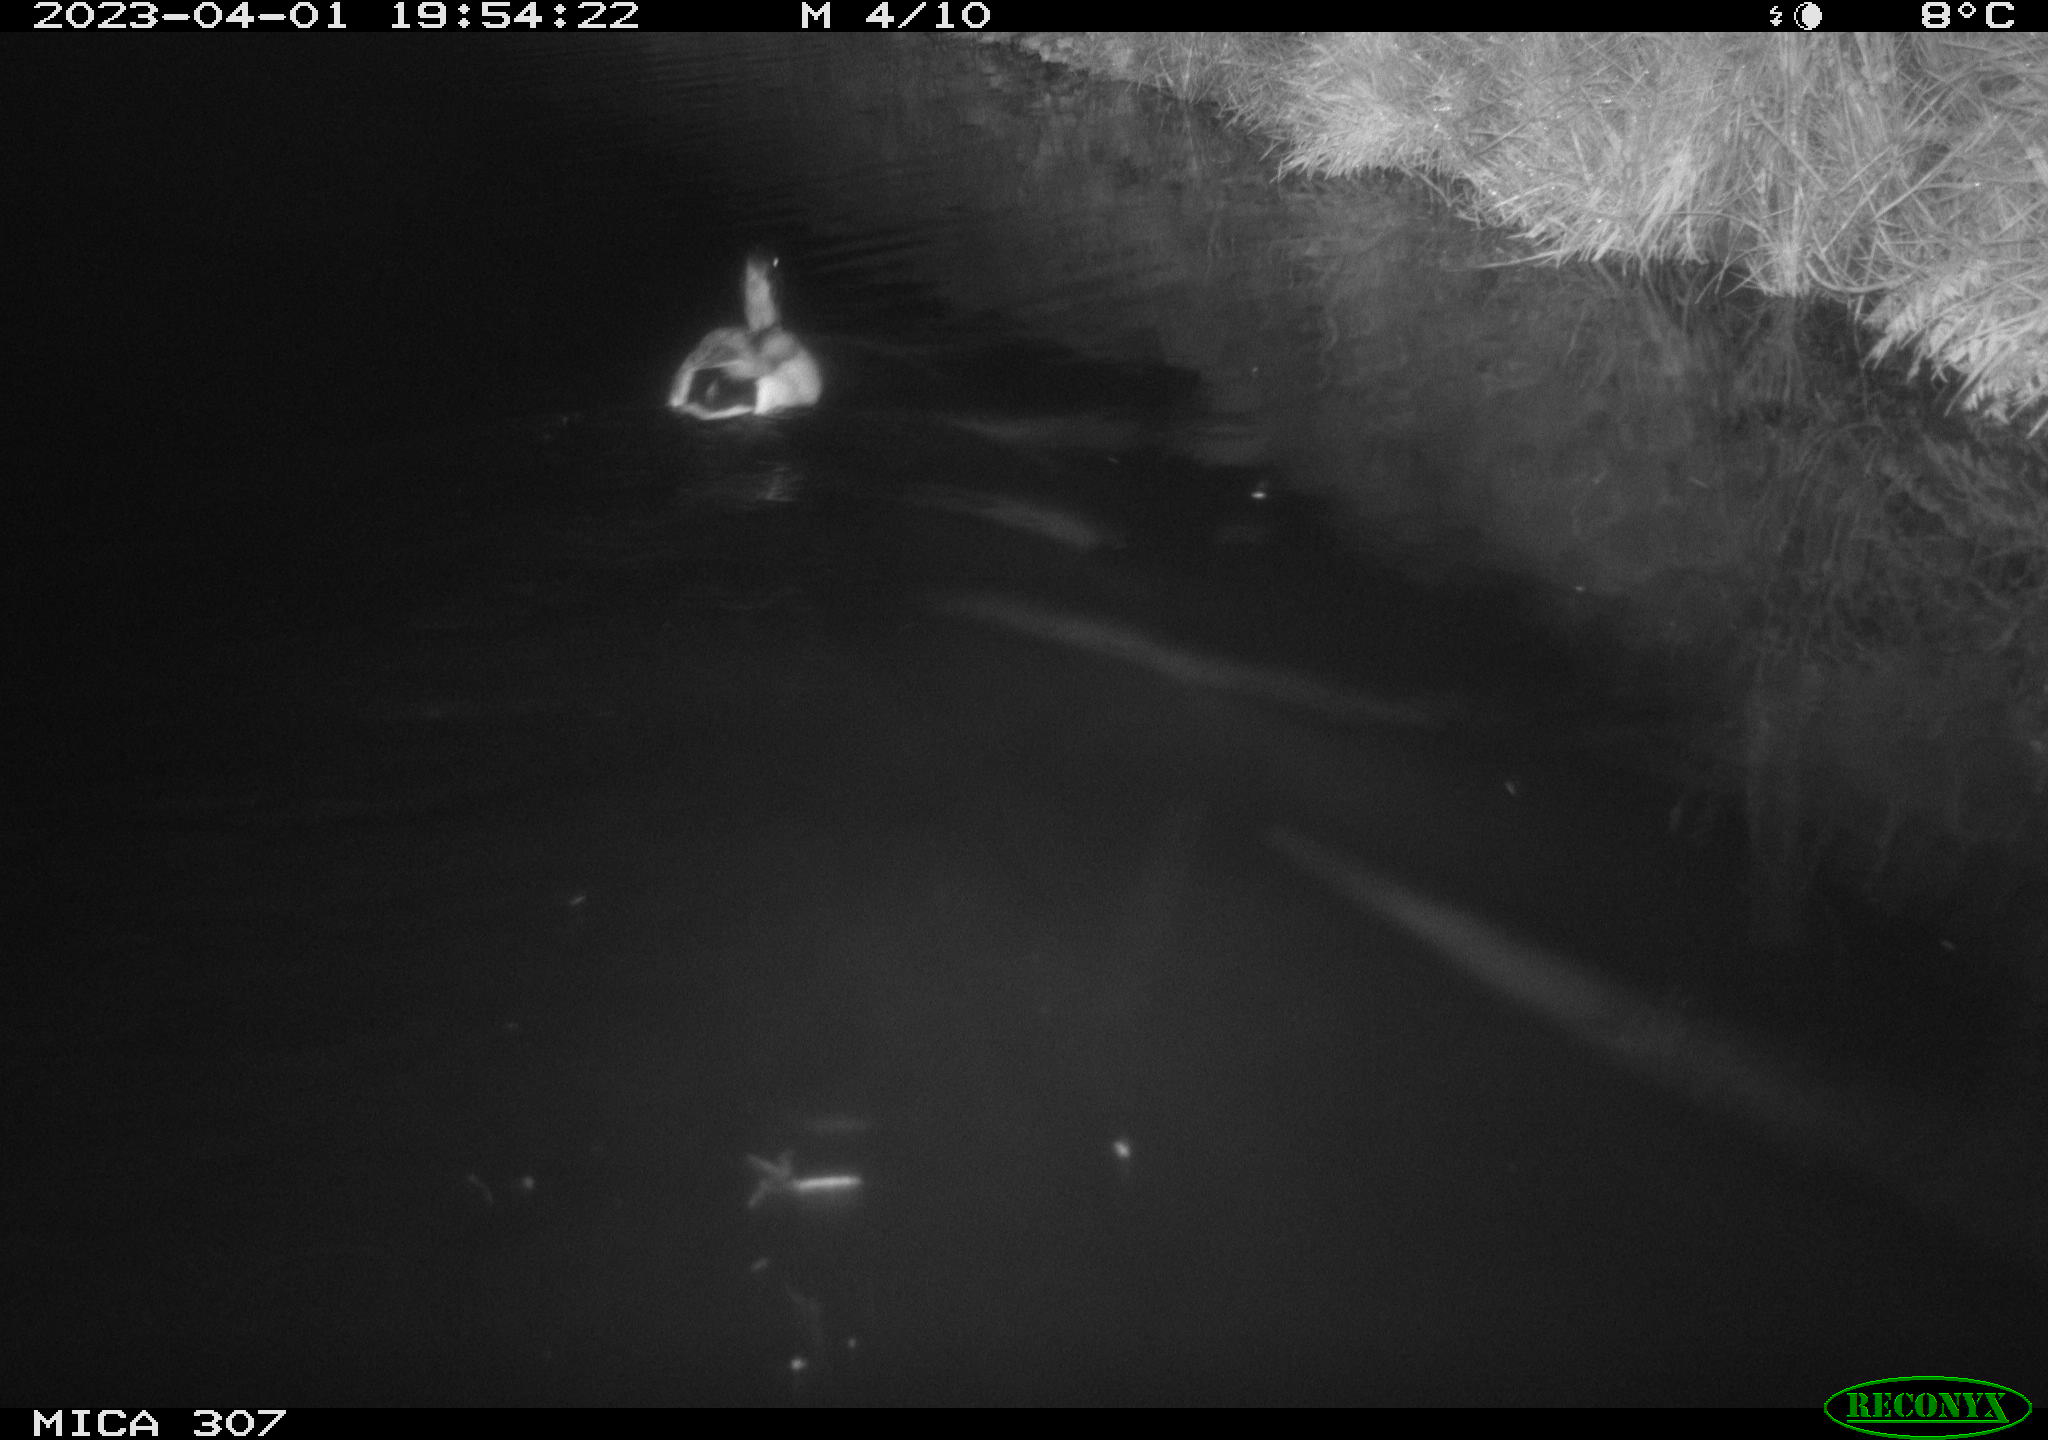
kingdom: Animalia
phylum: Chordata
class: Aves
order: Anseriformes
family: Anatidae
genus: Anas
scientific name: Anas
